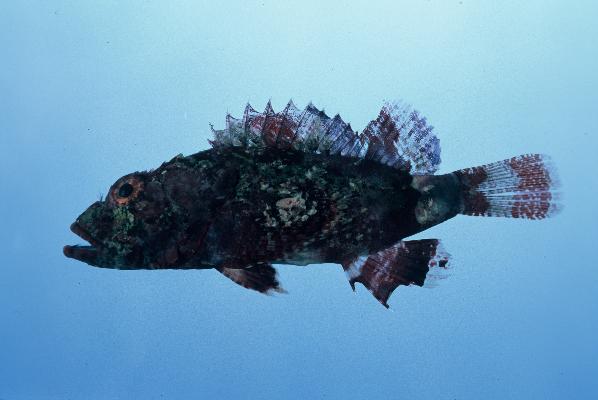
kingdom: Animalia
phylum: Chordata
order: Scorpaeniformes
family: Scorpaenidae
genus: Scorpaenopsis
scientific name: Scorpaenopsis gibbosa
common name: Humpback scorpionfish
